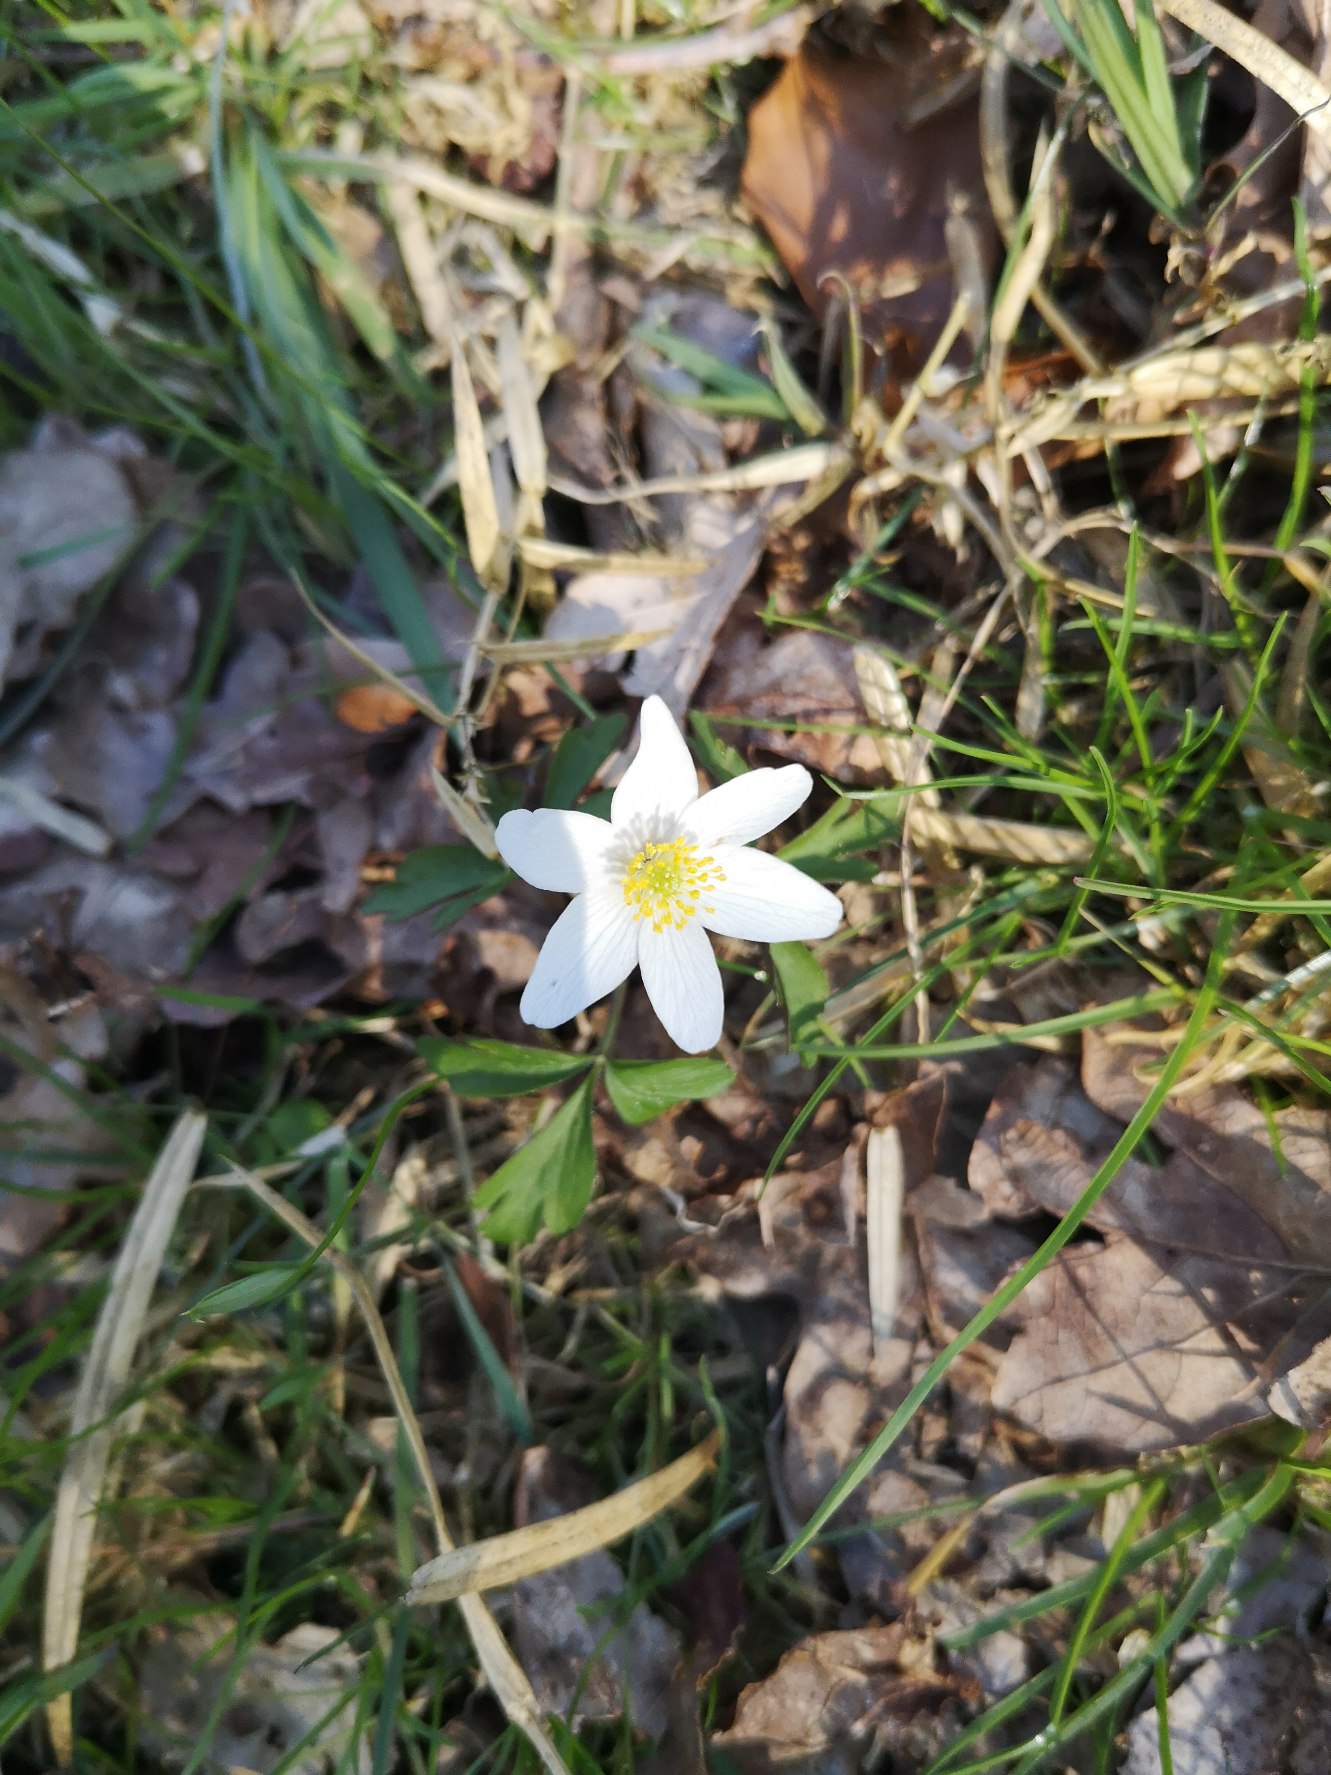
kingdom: Plantae
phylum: Tracheophyta
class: Magnoliopsida
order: Ranunculales
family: Ranunculaceae
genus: Anemone
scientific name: Anemone nemorosa
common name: Hvid anemone
